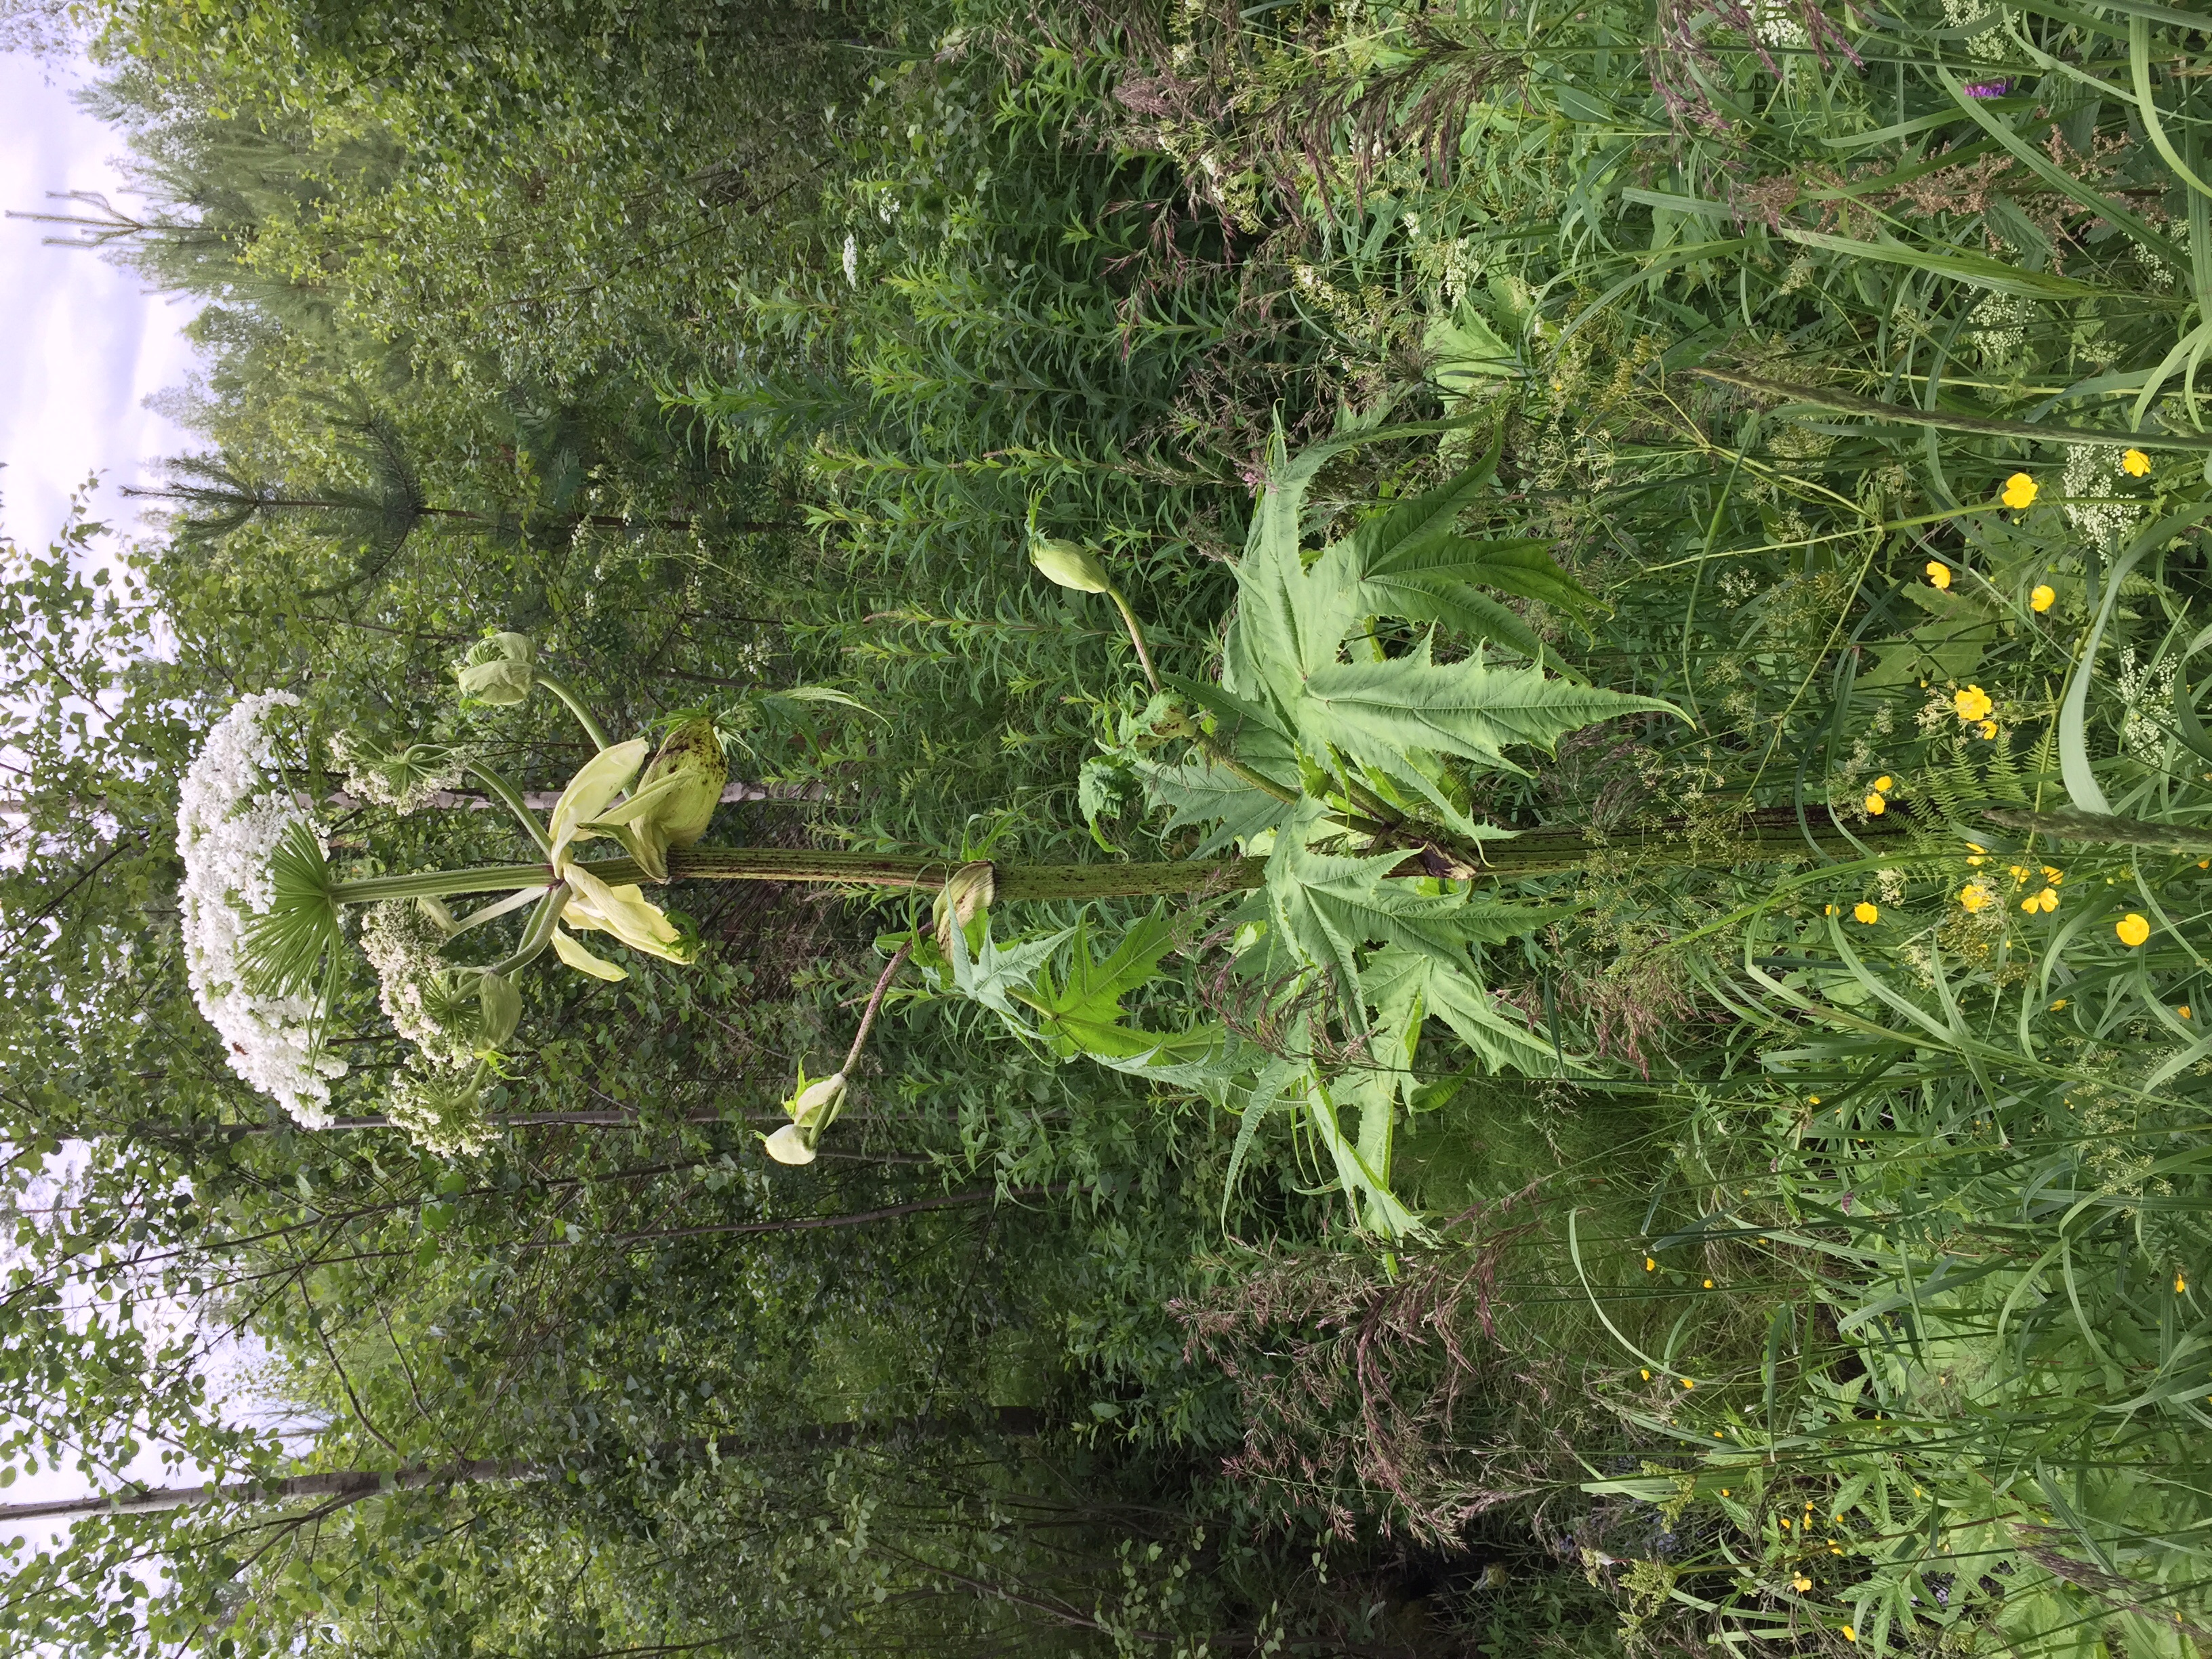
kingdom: Plantae
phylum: Tracheophyta
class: Magnoliopsida
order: Apiales
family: Apiaceae
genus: Heracleum
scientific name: Heracleum
